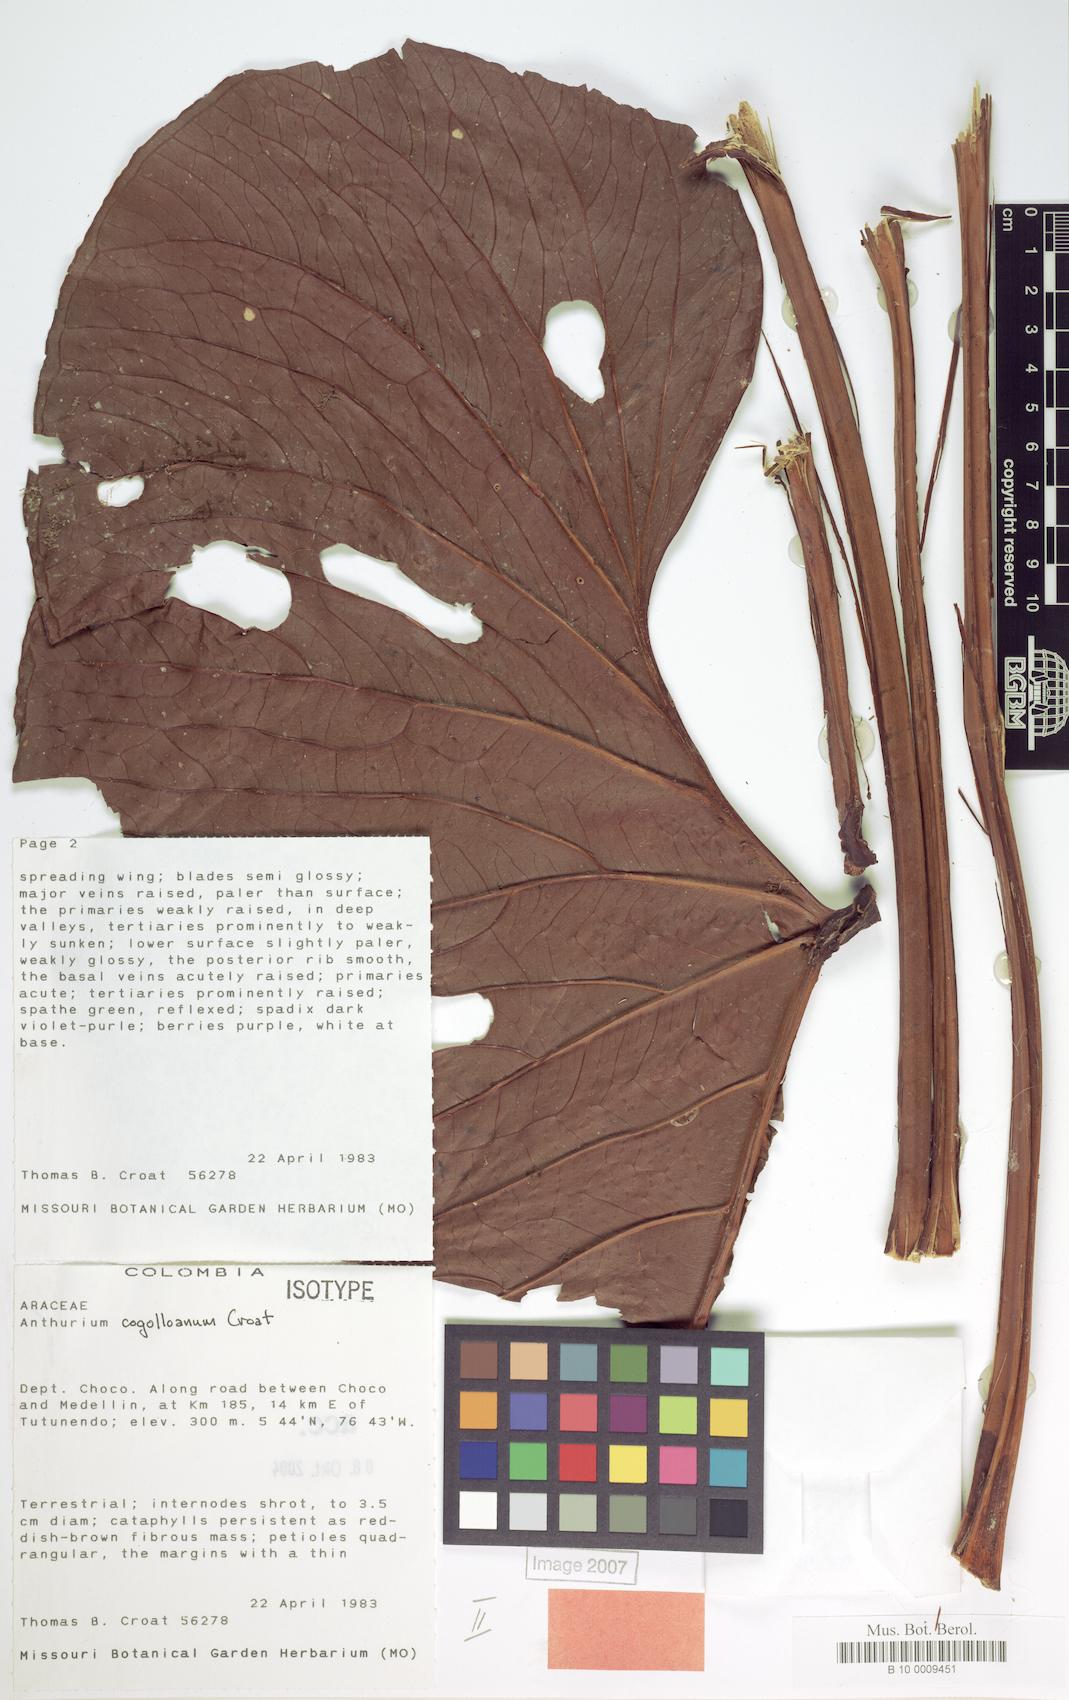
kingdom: Plantae
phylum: Tracheophyta
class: Liliopsida
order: Alismatales
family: Araceae
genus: Anthurium
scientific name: Anthurium cogolloanum
